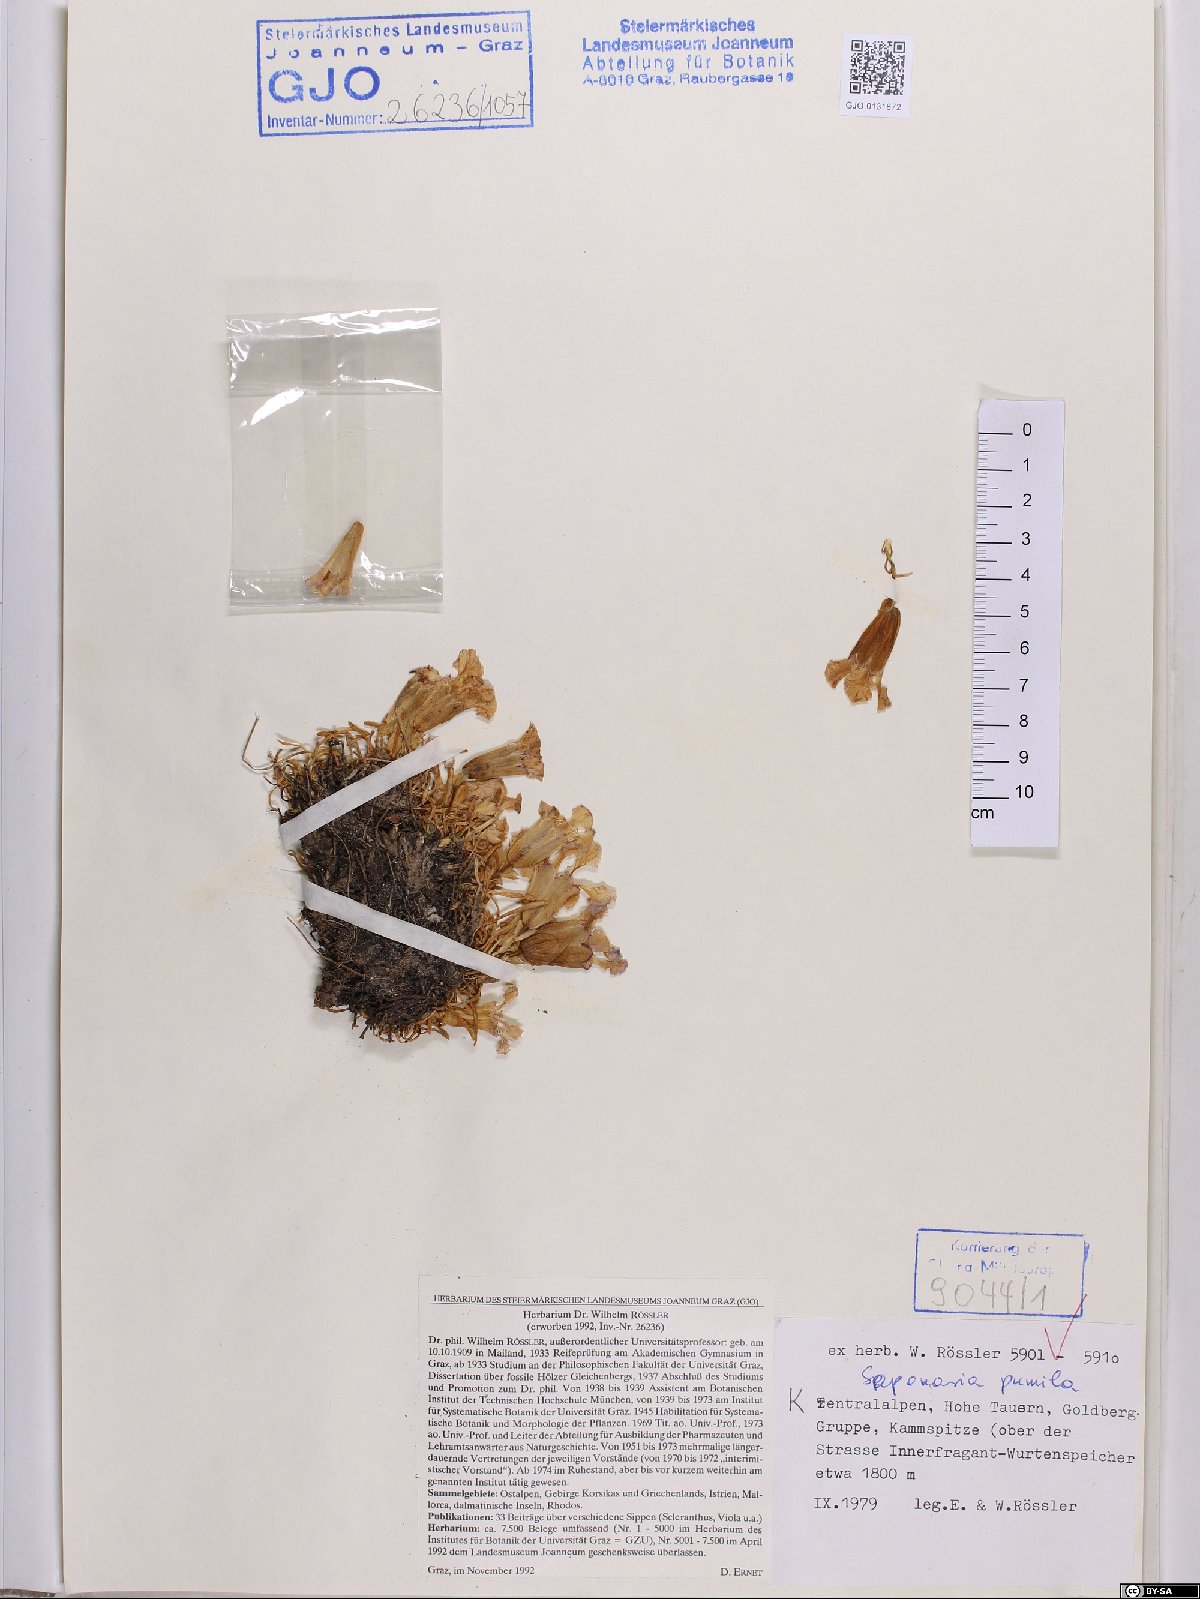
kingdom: Plantae
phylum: Tracheophyta
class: Magnoliopsida
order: Caryophyllales
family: Caryophyllaceae
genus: Saponaria
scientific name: Saponaria pumila
